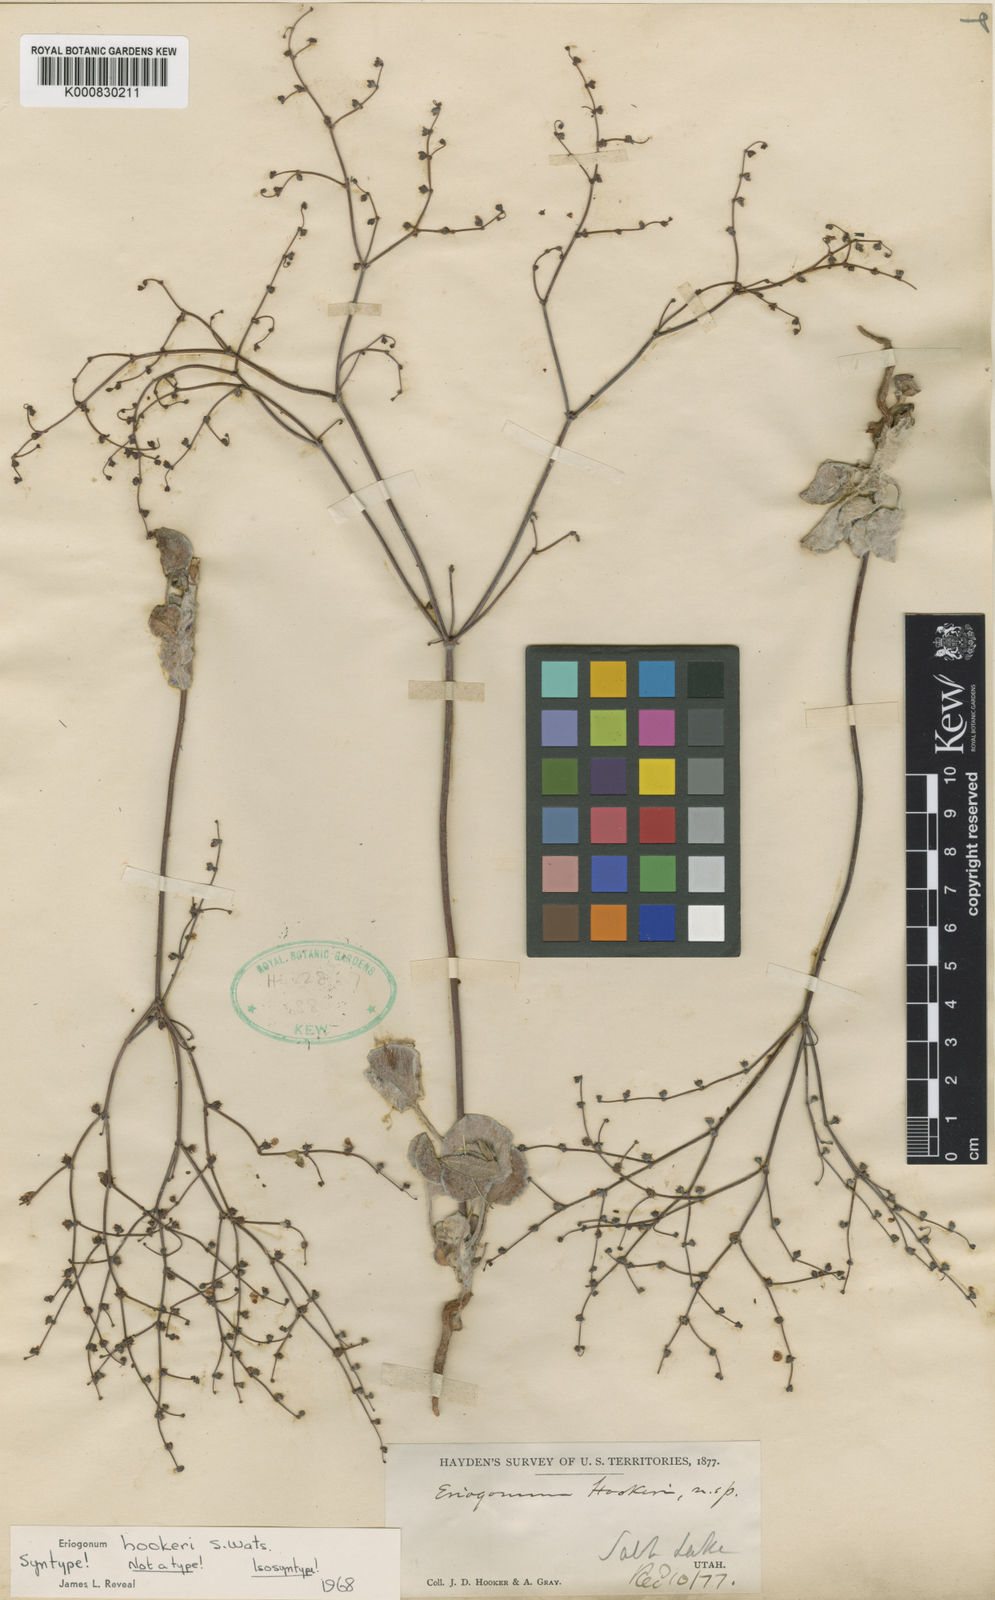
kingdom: Plantae
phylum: Tracheophyta
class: Magnoliopsida
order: Caryophyllales
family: Polygonaceae
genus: Eriogonum
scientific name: Eriogonum hookeri
